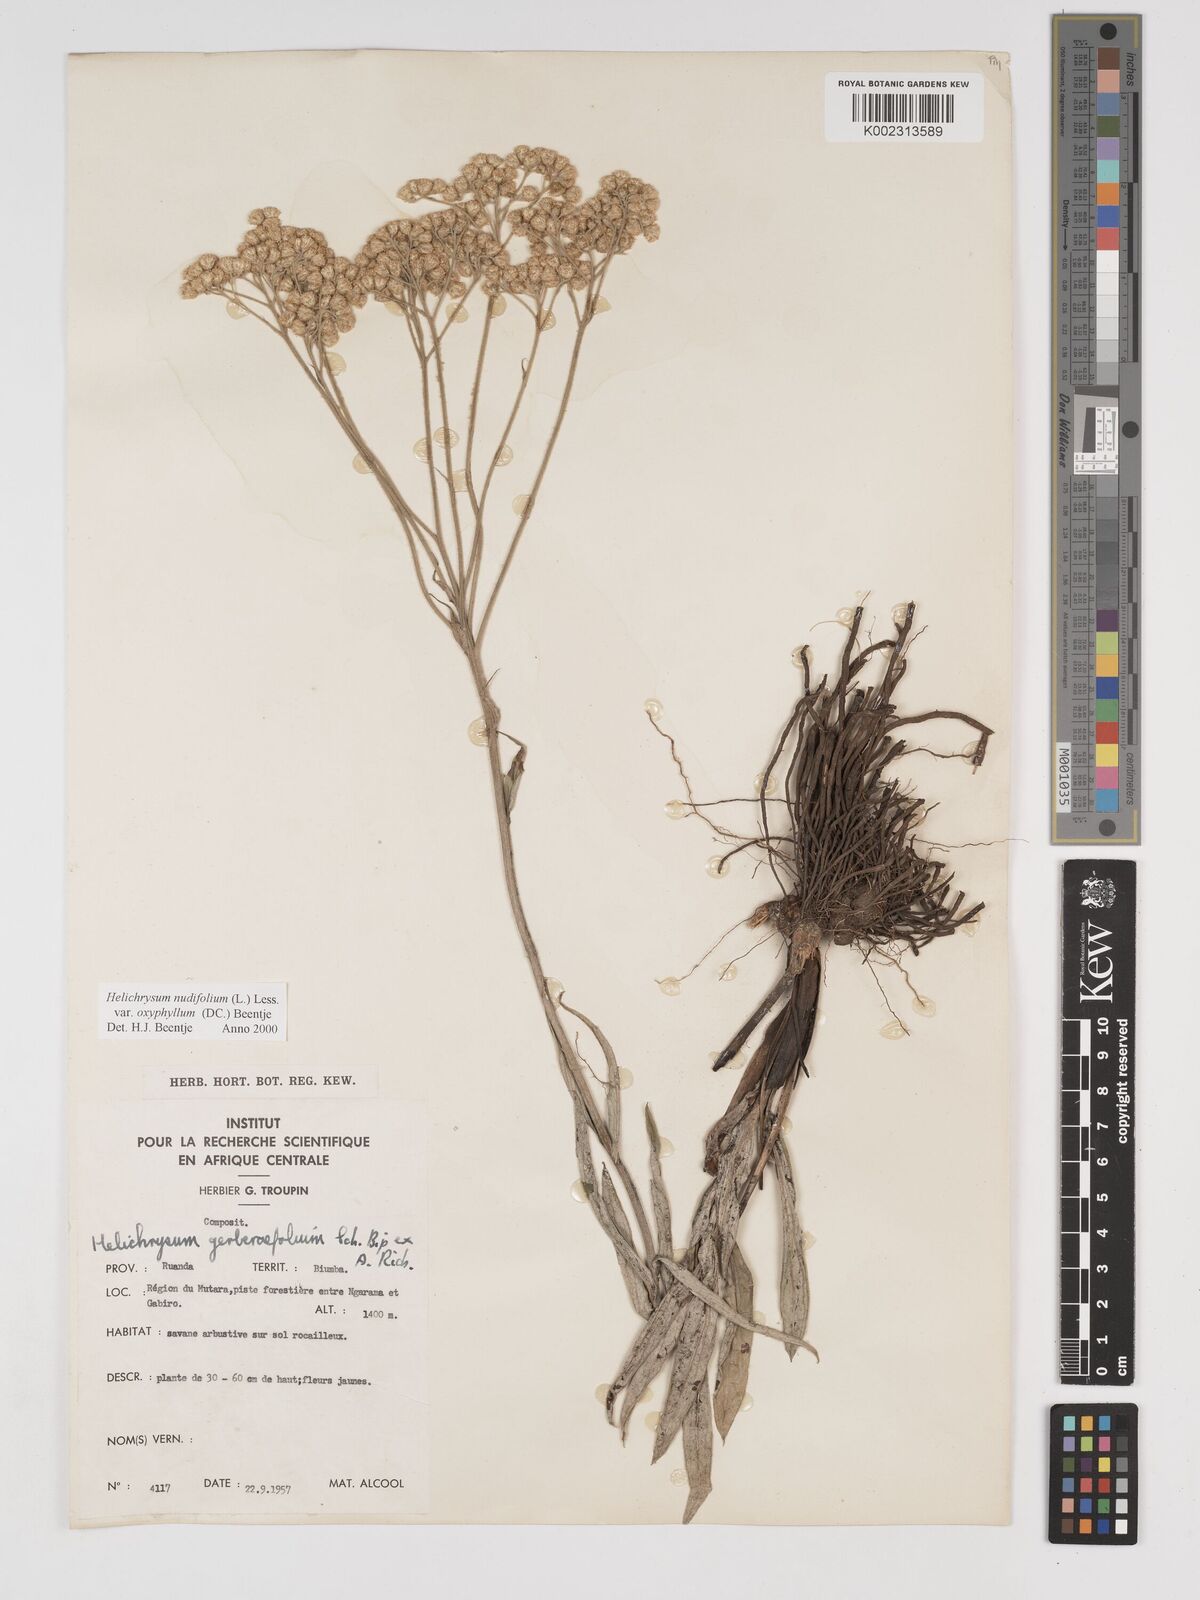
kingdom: Plantae
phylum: Tracheophyta
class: Magnoliopsida
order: Asterales
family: Asteraceae
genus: Helichrysum
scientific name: Helichrysum nudifolium
